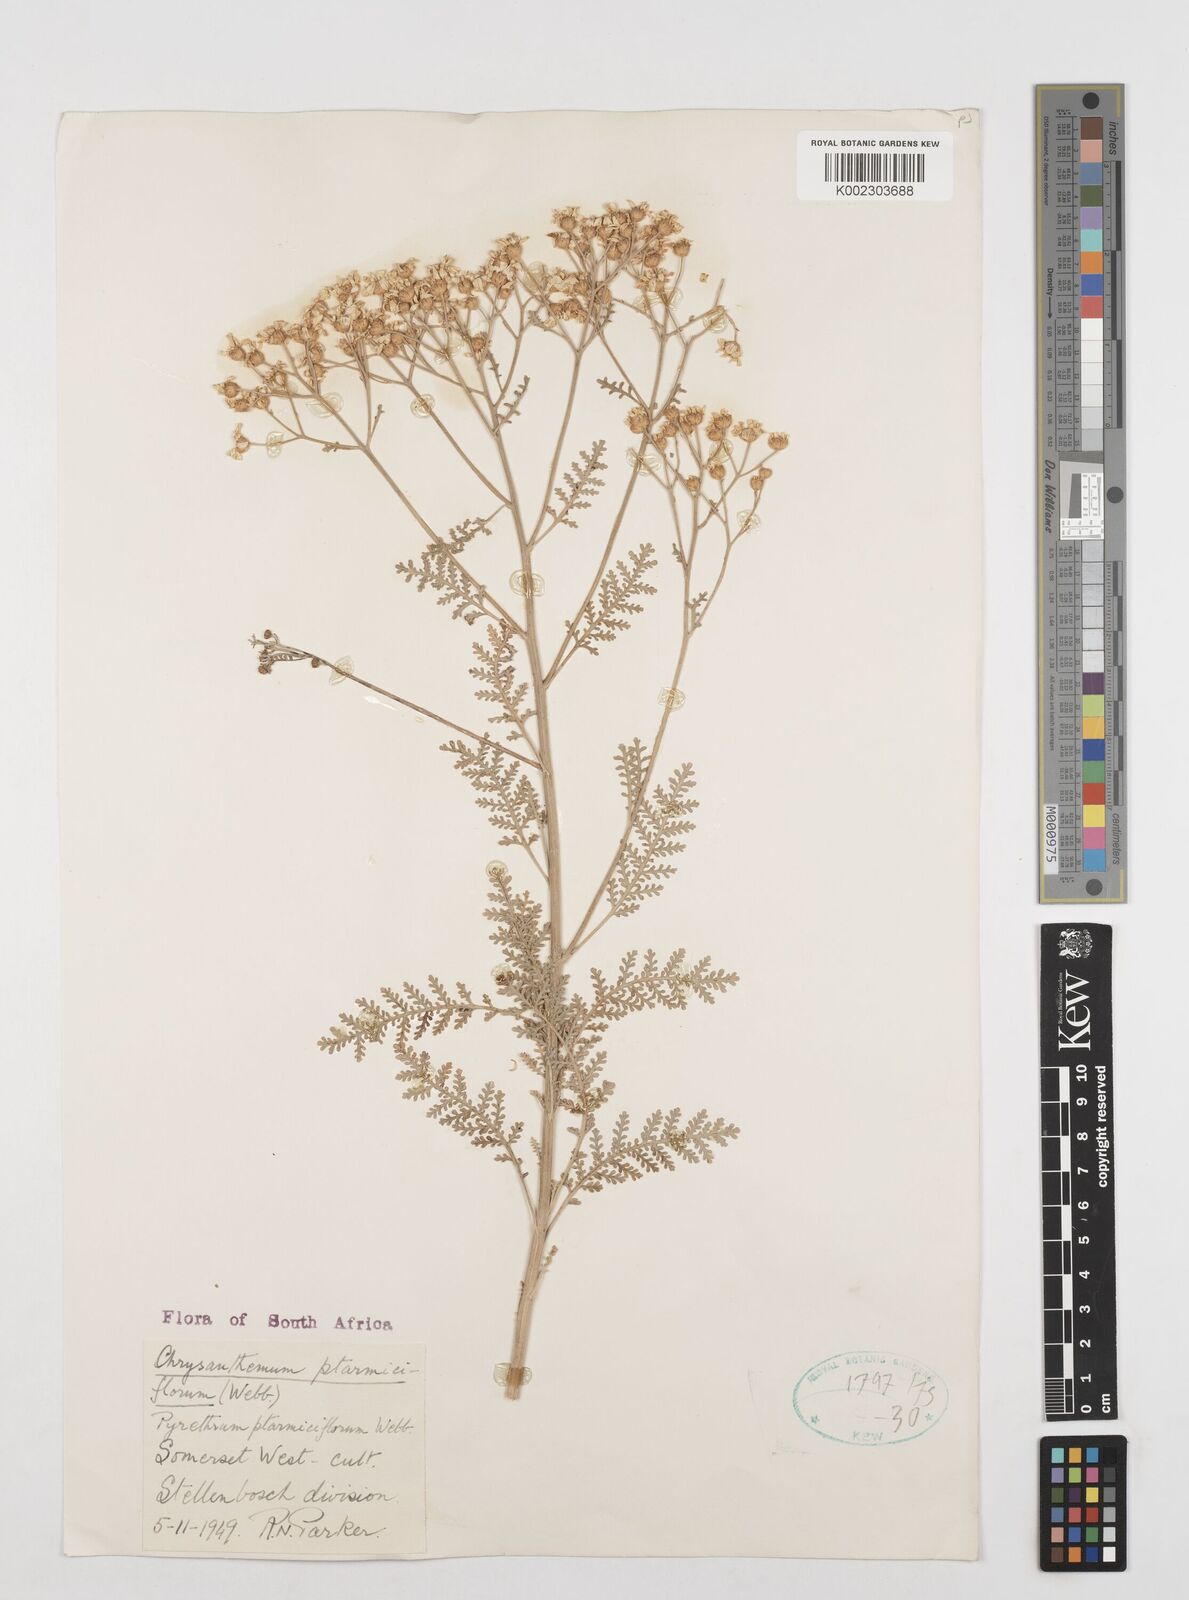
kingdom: Plantae
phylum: Tracheophyta
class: Magnoliopsida
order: Asterales
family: Asteraceae
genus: Gonospermum
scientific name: Gonospermum ptarmiciflorum
